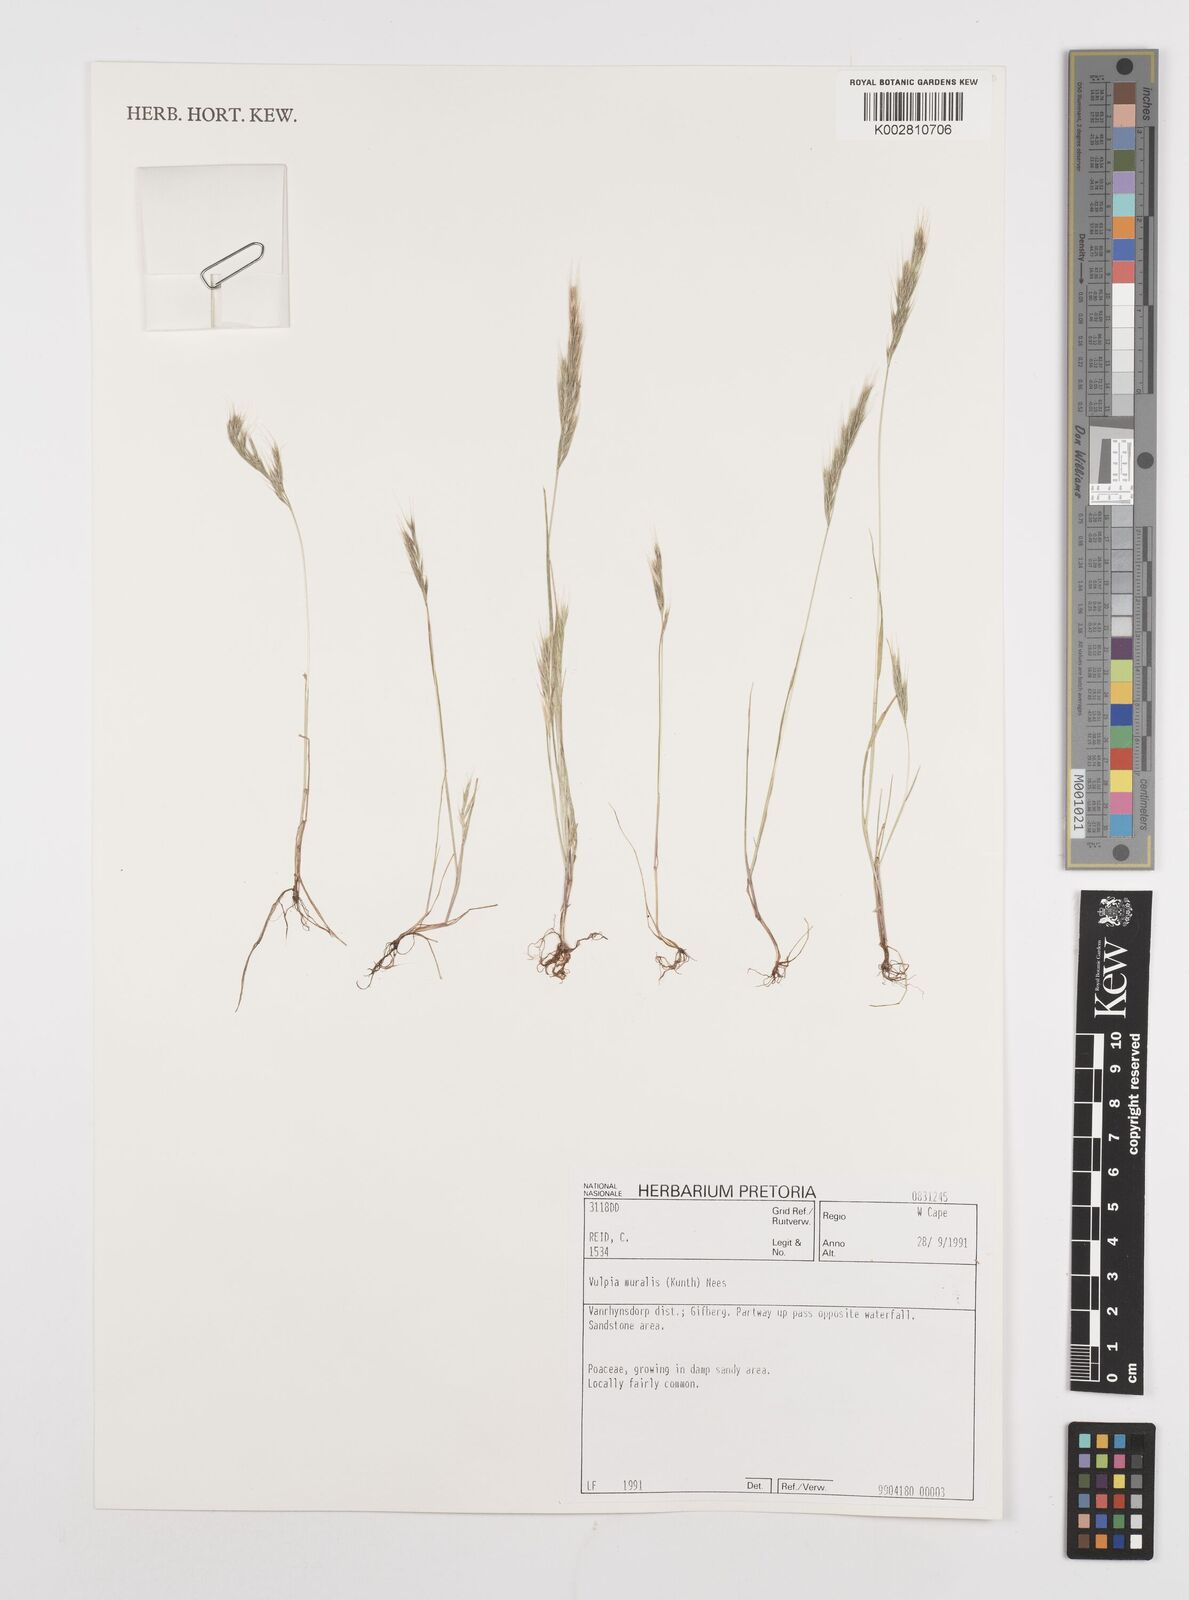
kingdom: Plantae
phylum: Tracheophyta
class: Liliopsida
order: Poales
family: Poaceae
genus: Festuca
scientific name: Festuca muralis
